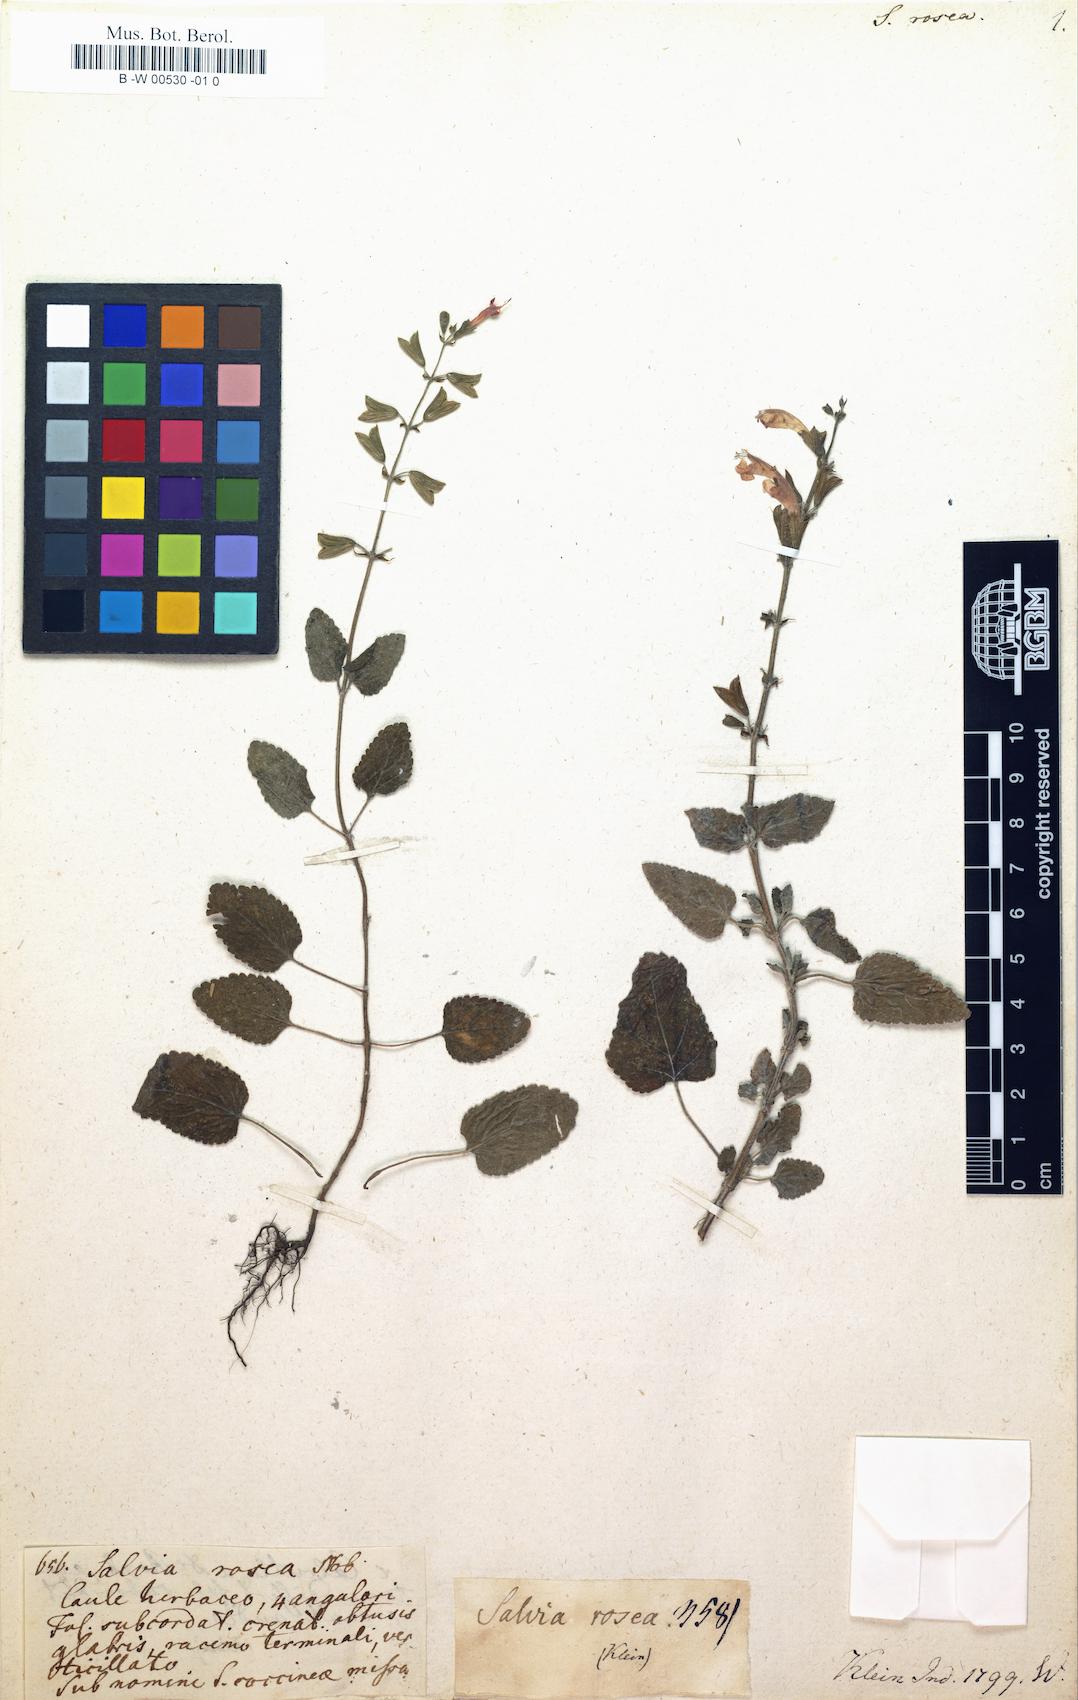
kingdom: Plantae
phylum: Tracheophyta
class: Magnoliopsida
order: Lamiales
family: Lamiaceae
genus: Salvia
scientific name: Salvia coccinea
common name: Blood sage
